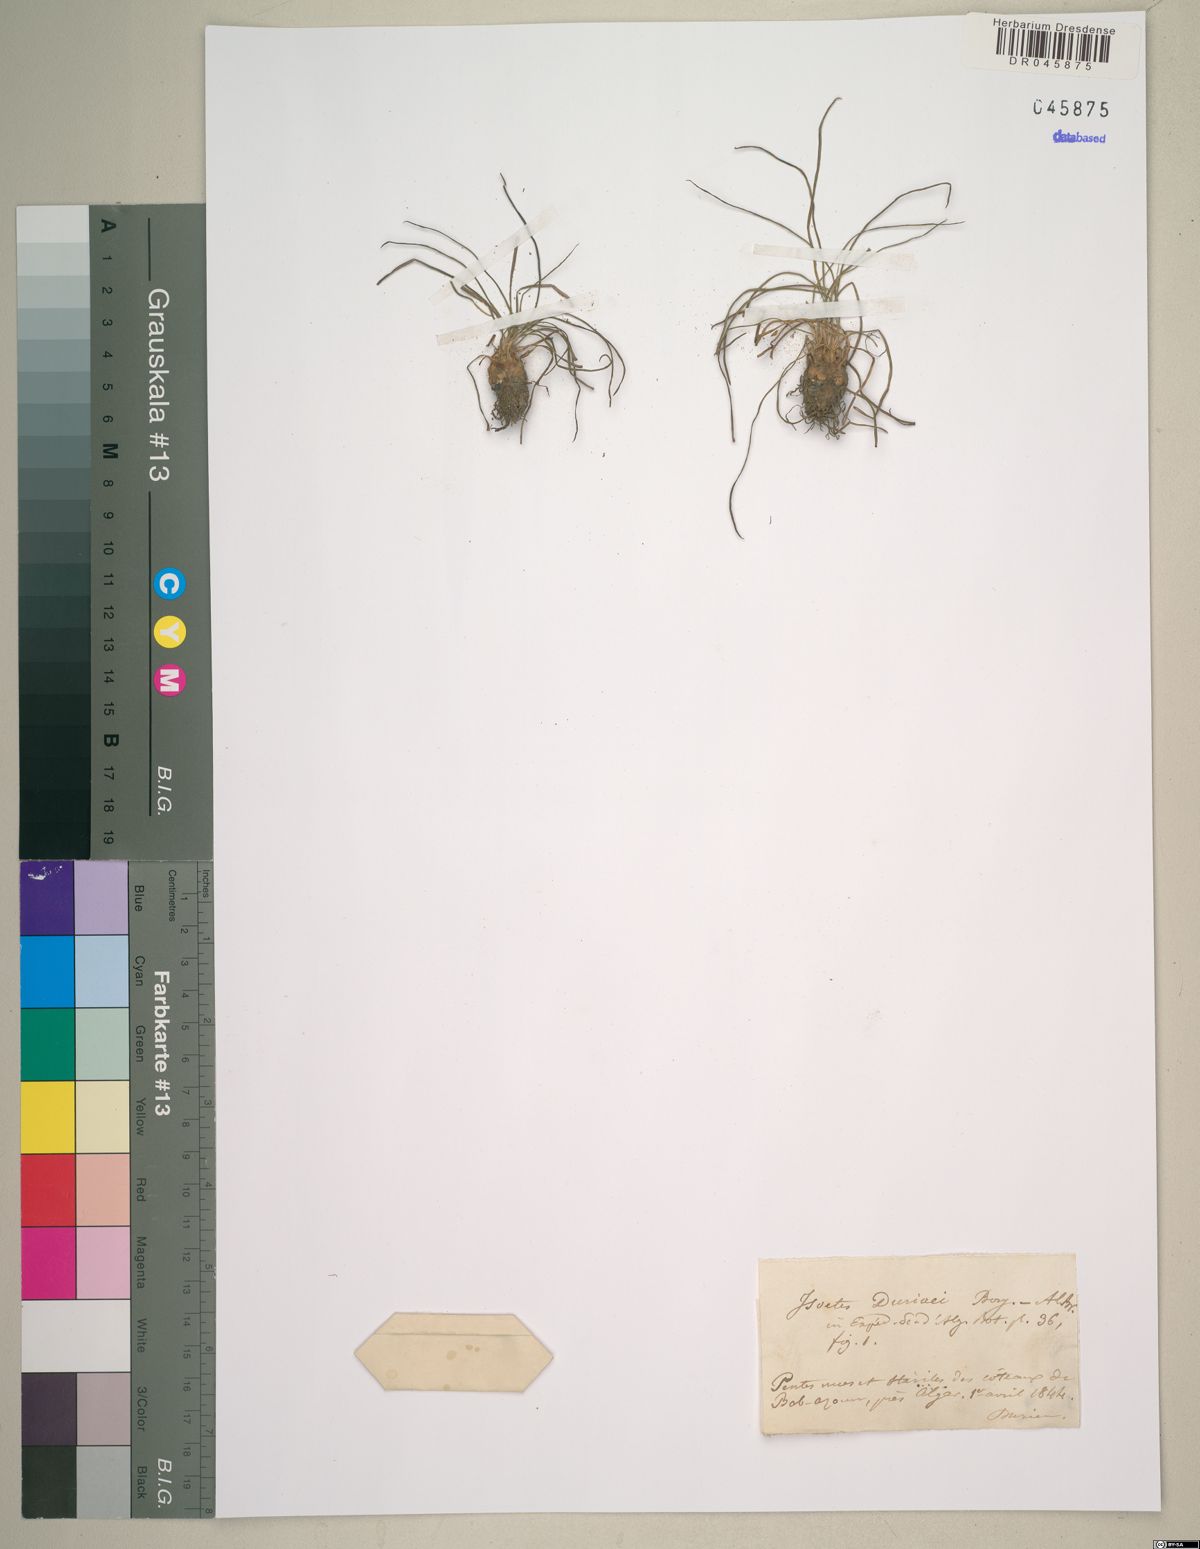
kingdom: Plantae
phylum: Tracheophyta
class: Lycopodiopsida
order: Isoetales
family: Isoetaceae
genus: Isoetes
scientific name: Isoetes duriei
